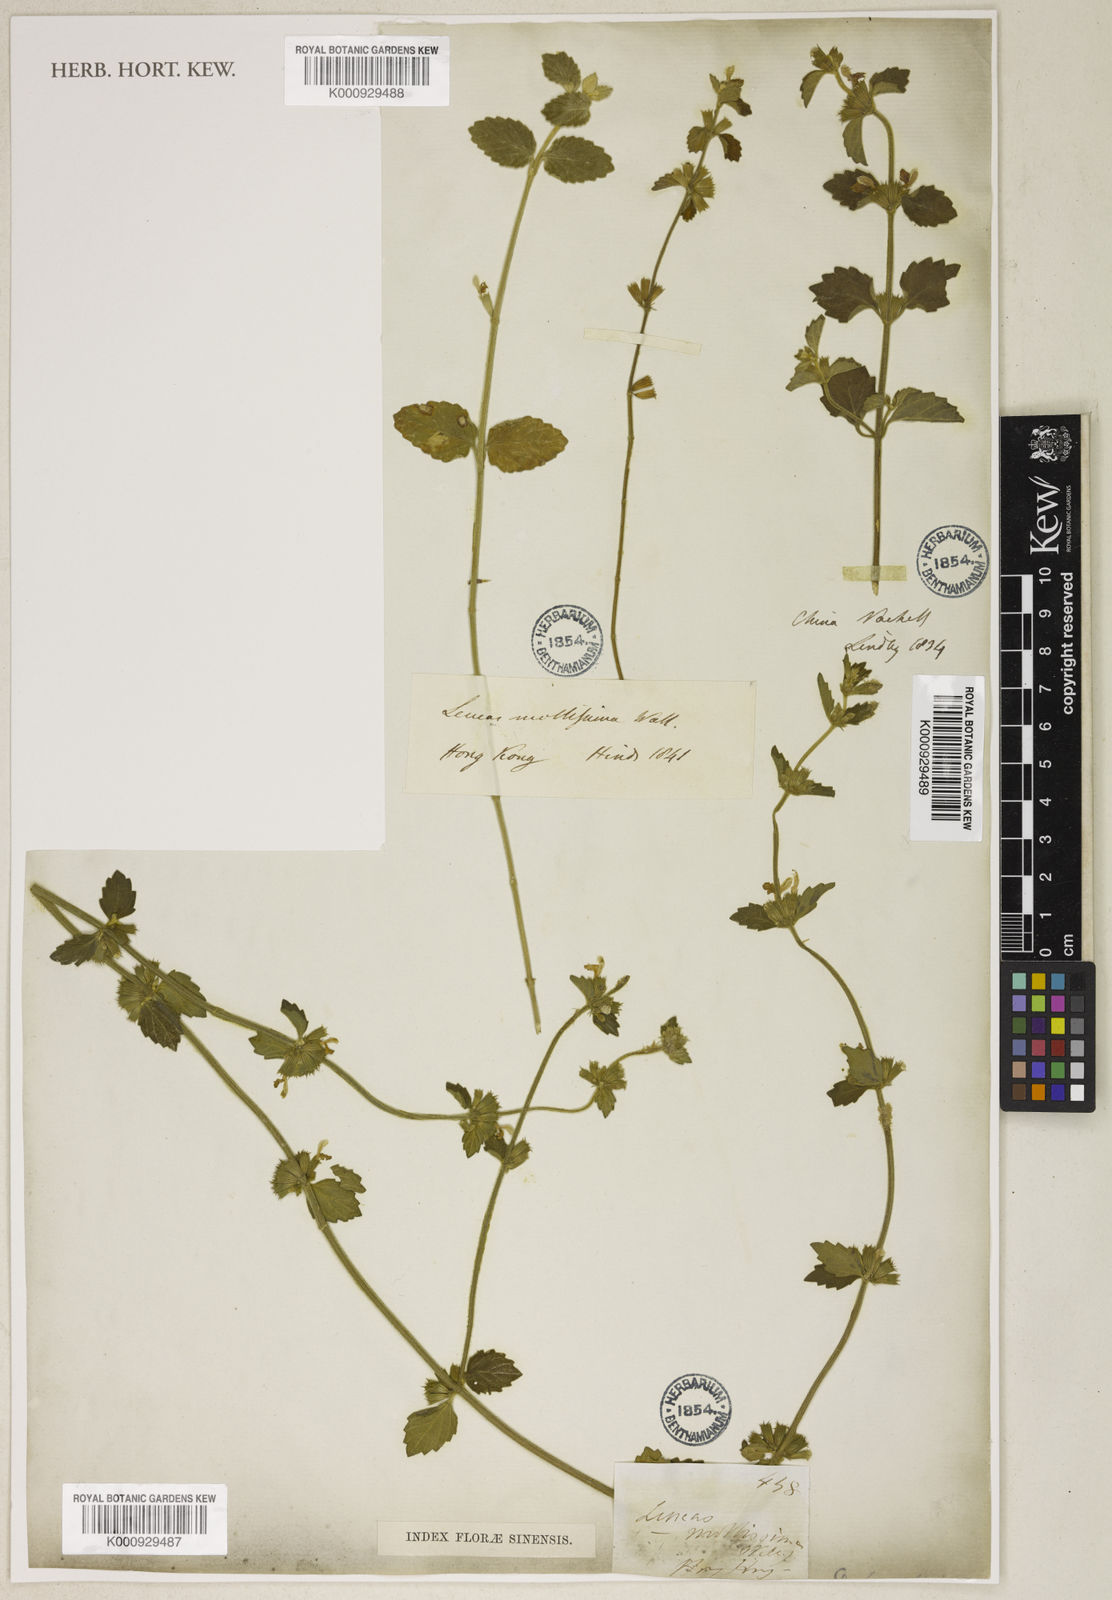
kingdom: Plantae
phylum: Tracheophyta
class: Magnoliopsida
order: Lamiales
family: Lamiaceae
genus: Leucas
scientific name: Leucas chinensis
